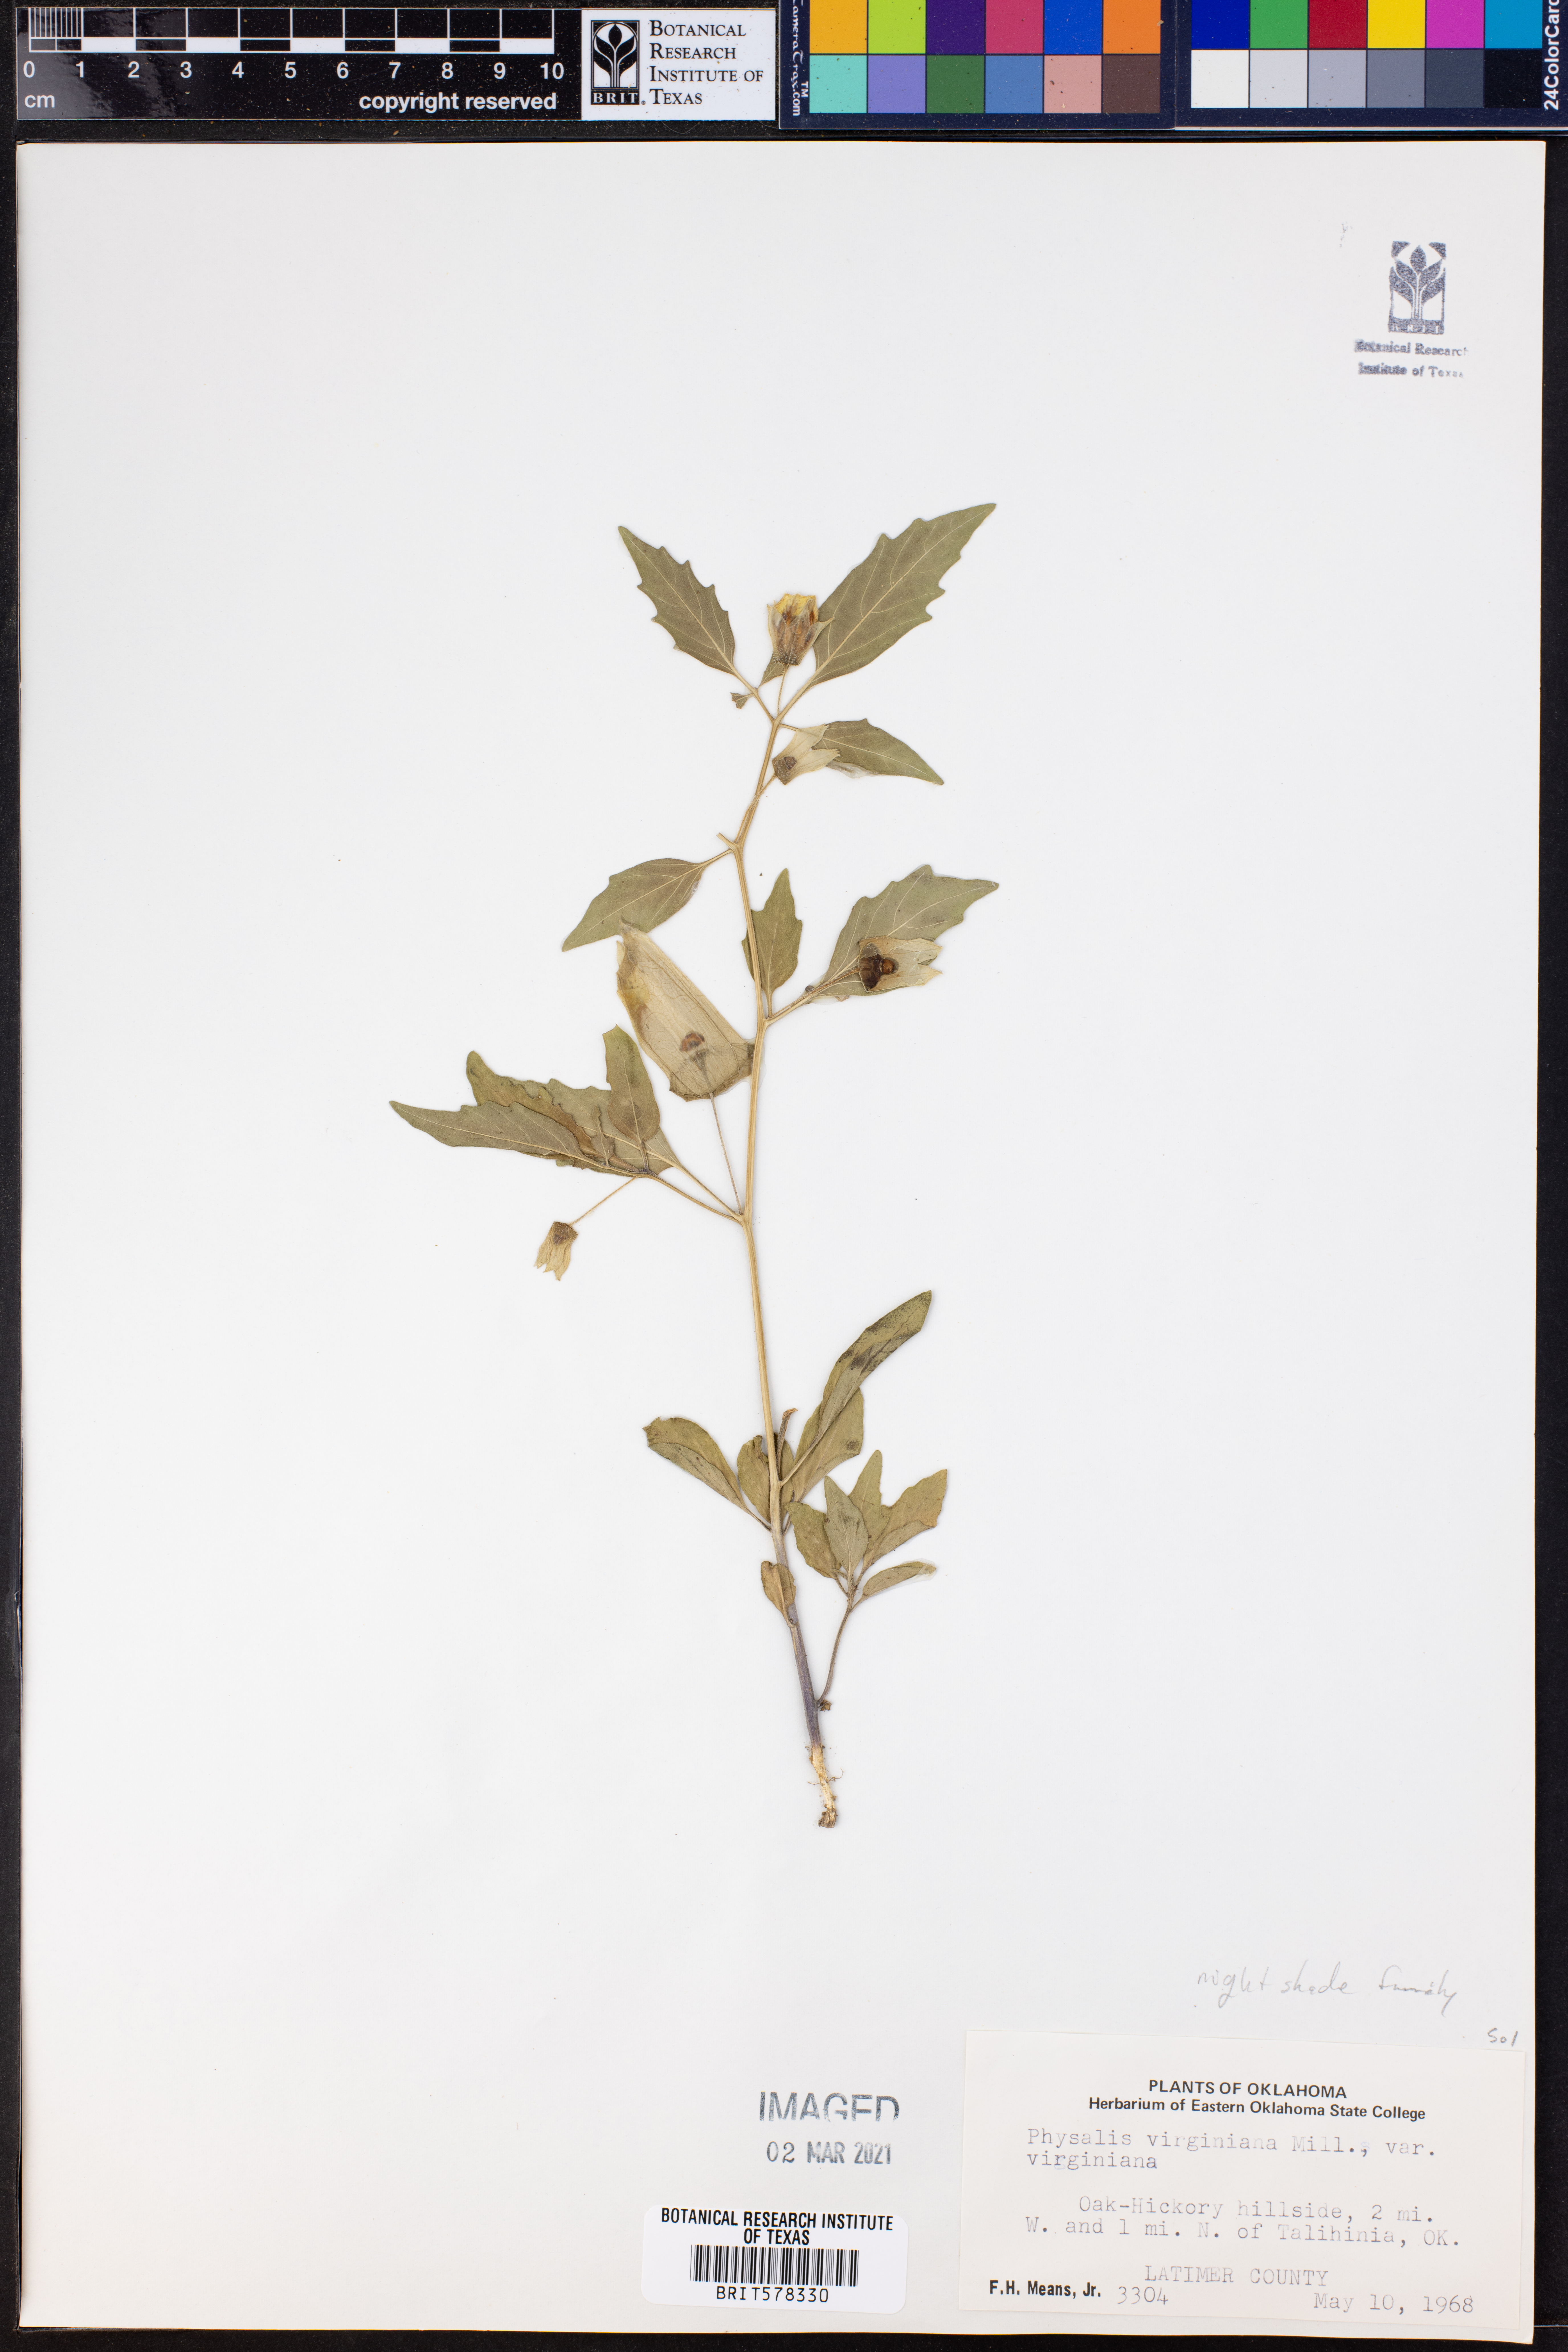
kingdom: Plantae
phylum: Tracheophyta
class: Magnoliopsida
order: Solanales
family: Solanaceae
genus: Physalis
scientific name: Physalis virginiana
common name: Virginia ground-cherry
